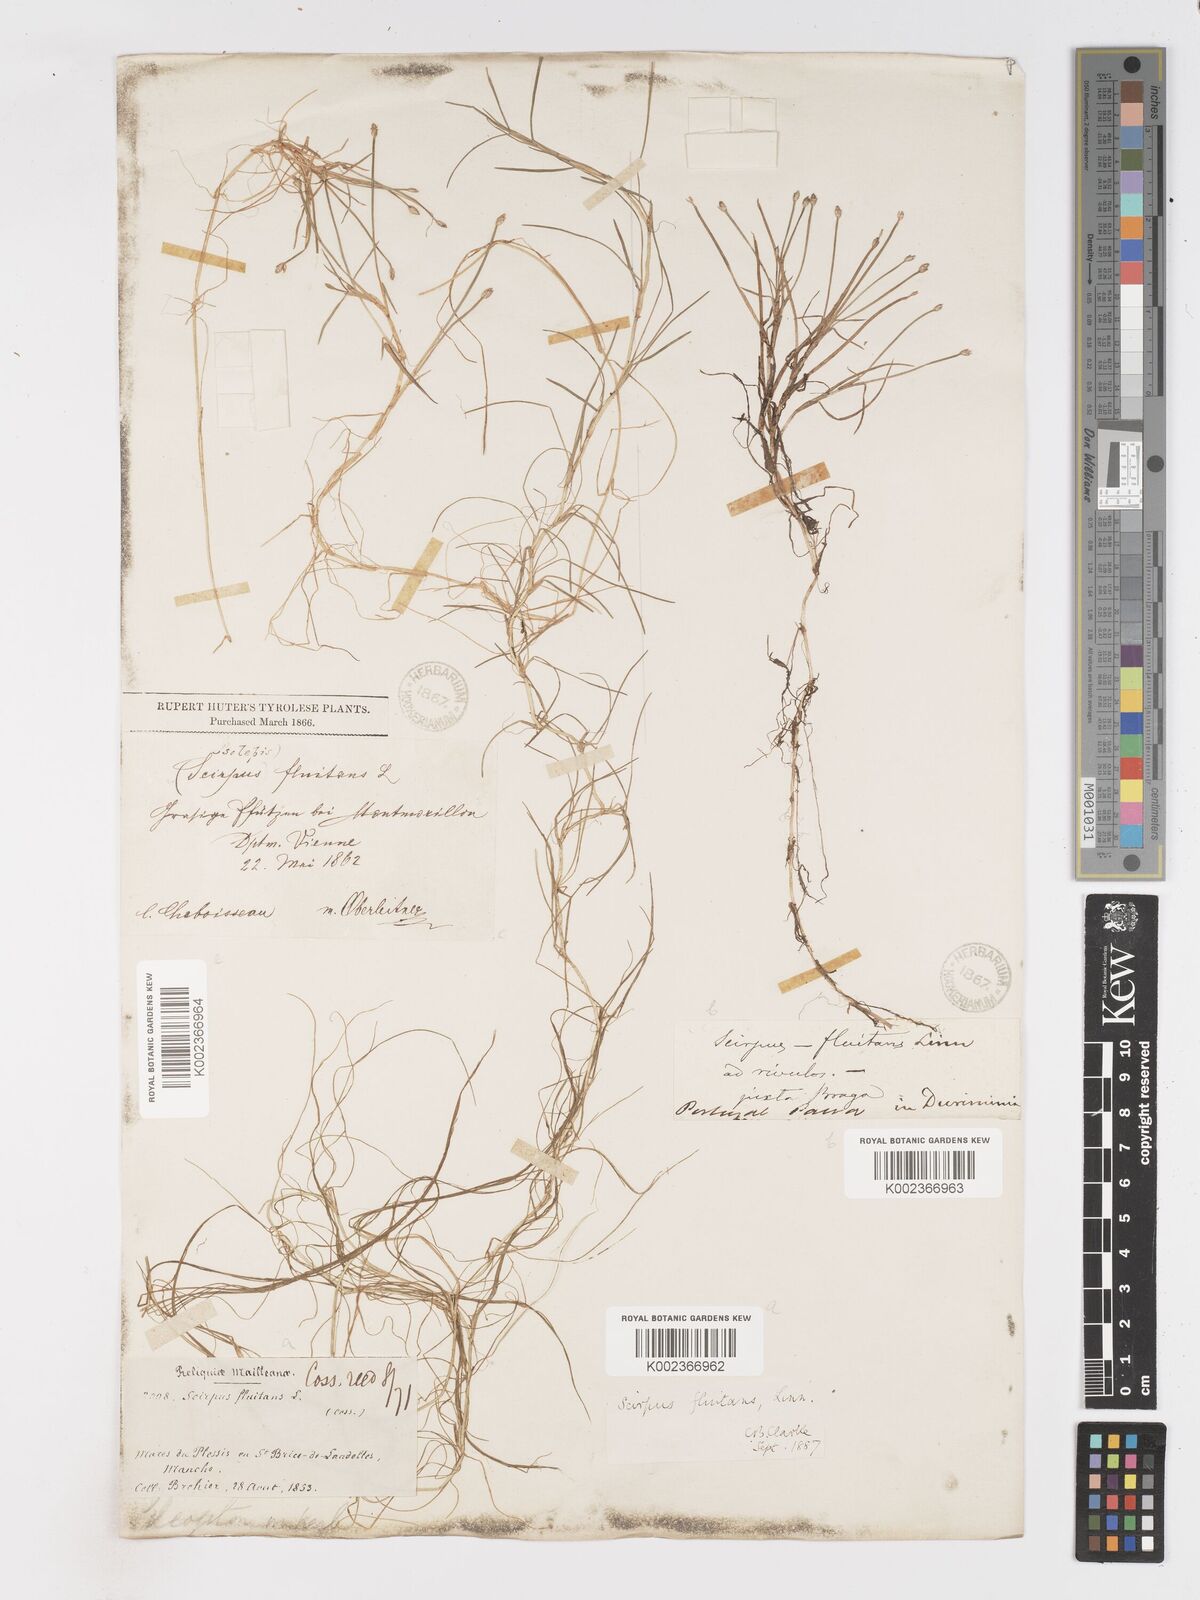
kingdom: Plantae
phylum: Tracheophyta
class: Liliopsida
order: Poales
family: Cyperaceae
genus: Isolepis
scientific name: Isolepis fluitans
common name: Floating club-rush
